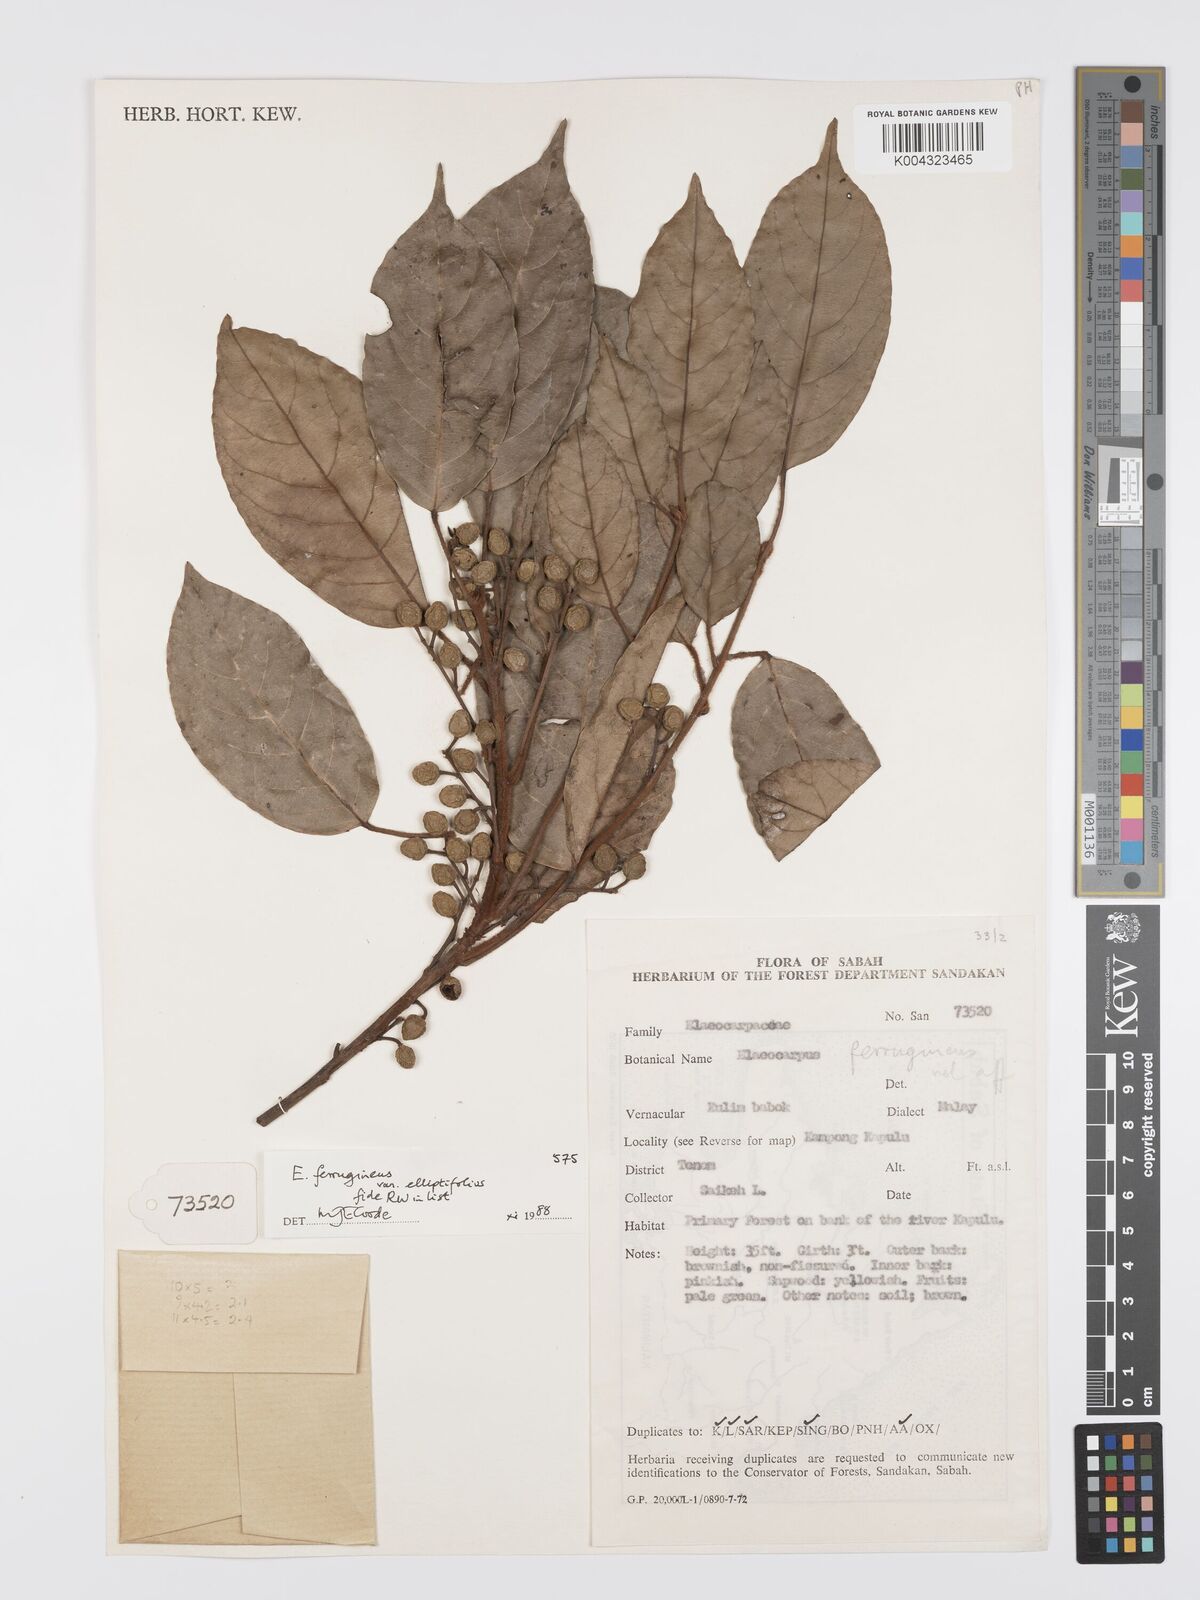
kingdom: Plantae
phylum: Tracheophyta
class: Magnoliopsida
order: Oxalidales
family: Elaeocarpaceae
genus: Elaeocarpus
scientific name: Elaeocarpus ferrugineus
